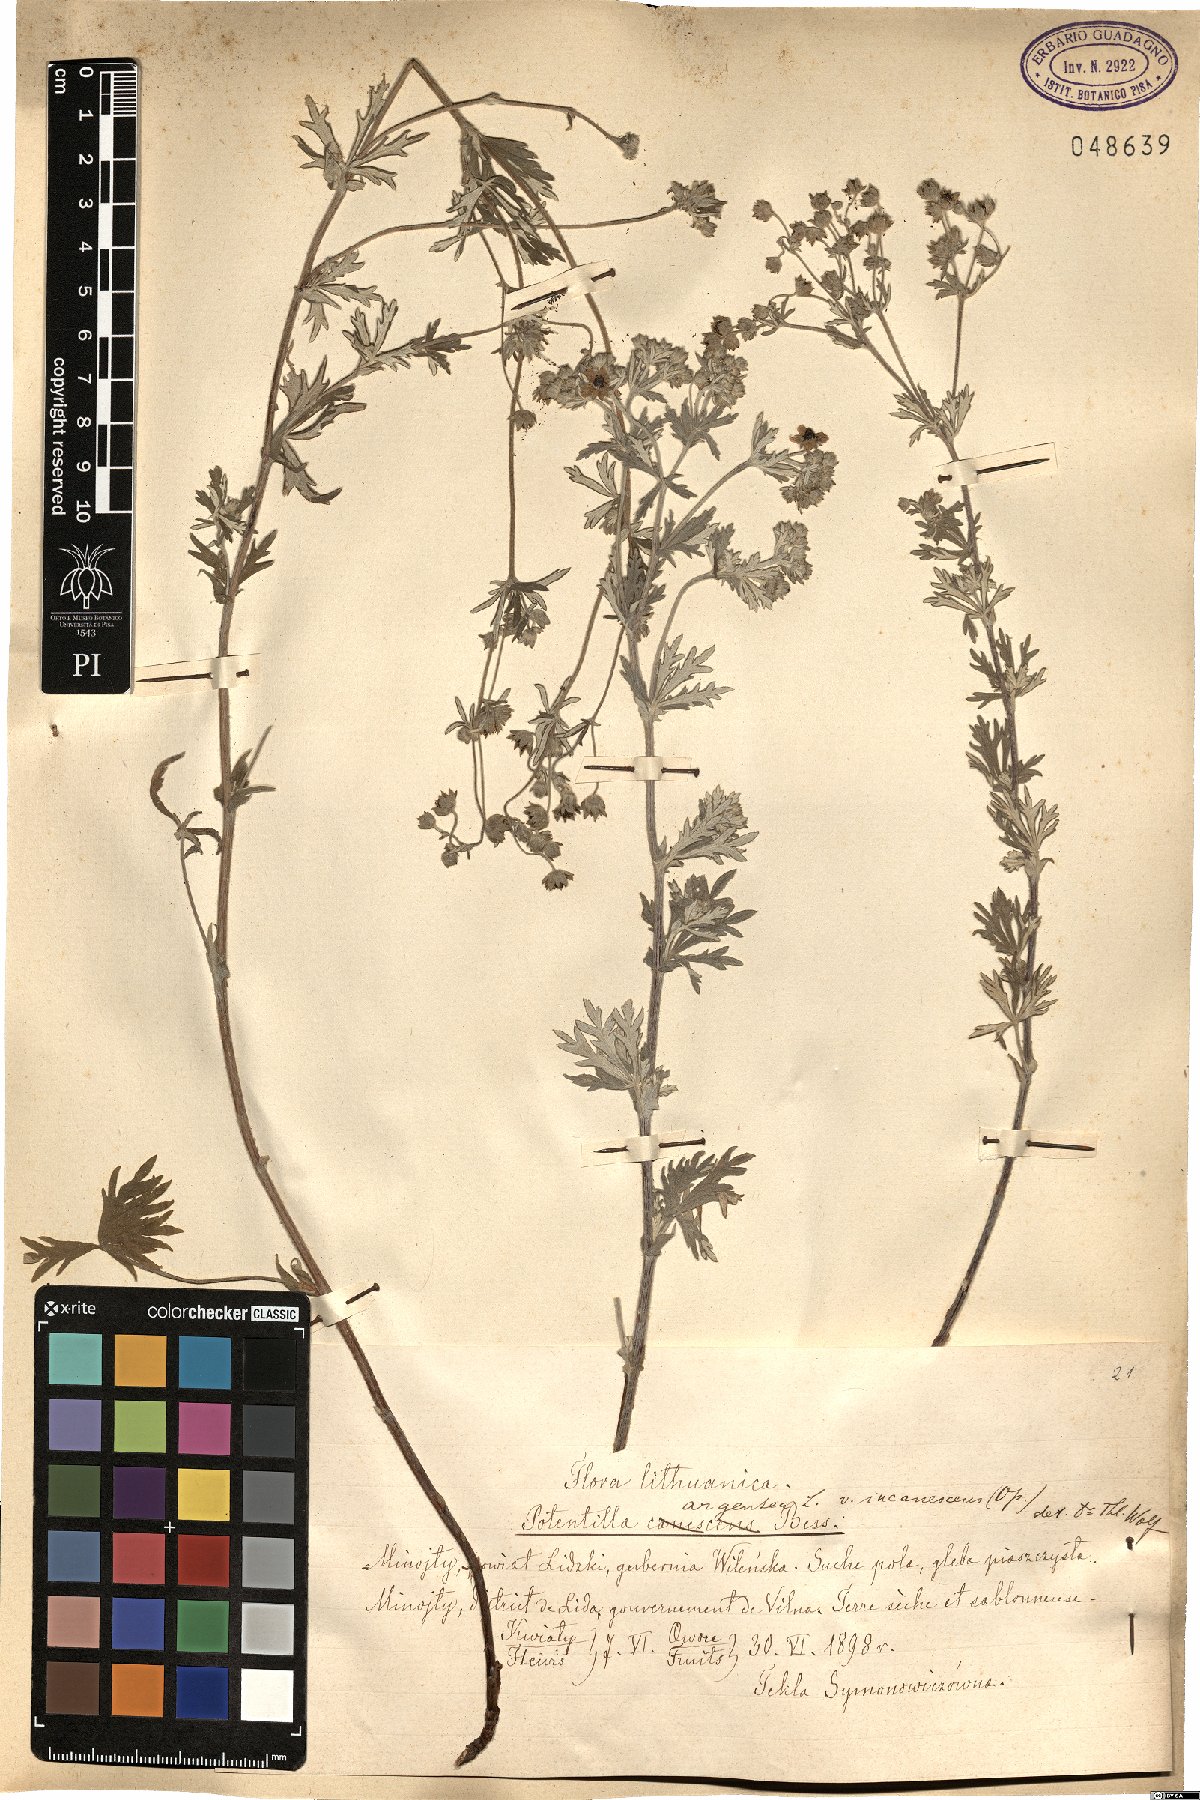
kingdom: Plantae
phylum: Tracheophyta
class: Magnoliopsida
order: Rosales
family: Rosaceae
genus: Potentilla
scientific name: Potentilla neglecta
